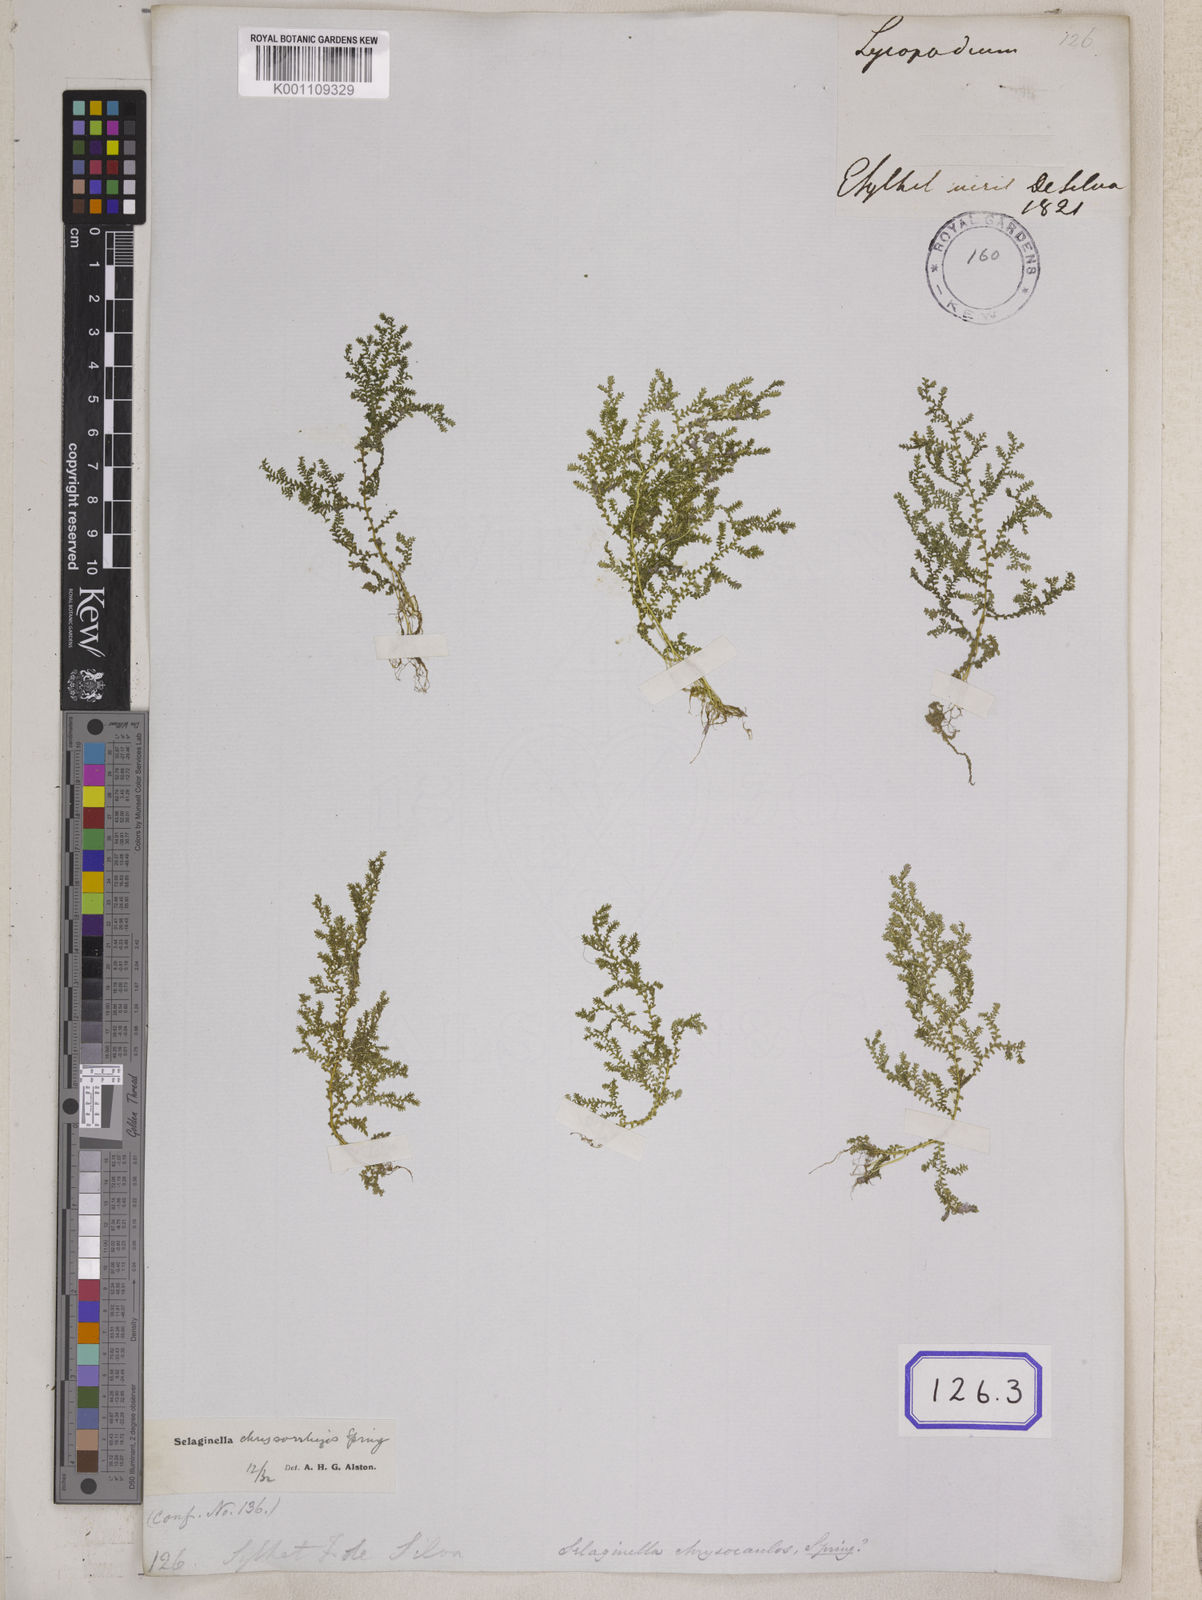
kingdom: Plantae
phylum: Tracheophyta
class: Lycopodiopsida
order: Selaginellales
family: Selaginellaceae
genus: Selaginella
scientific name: Selaginella semicordata
